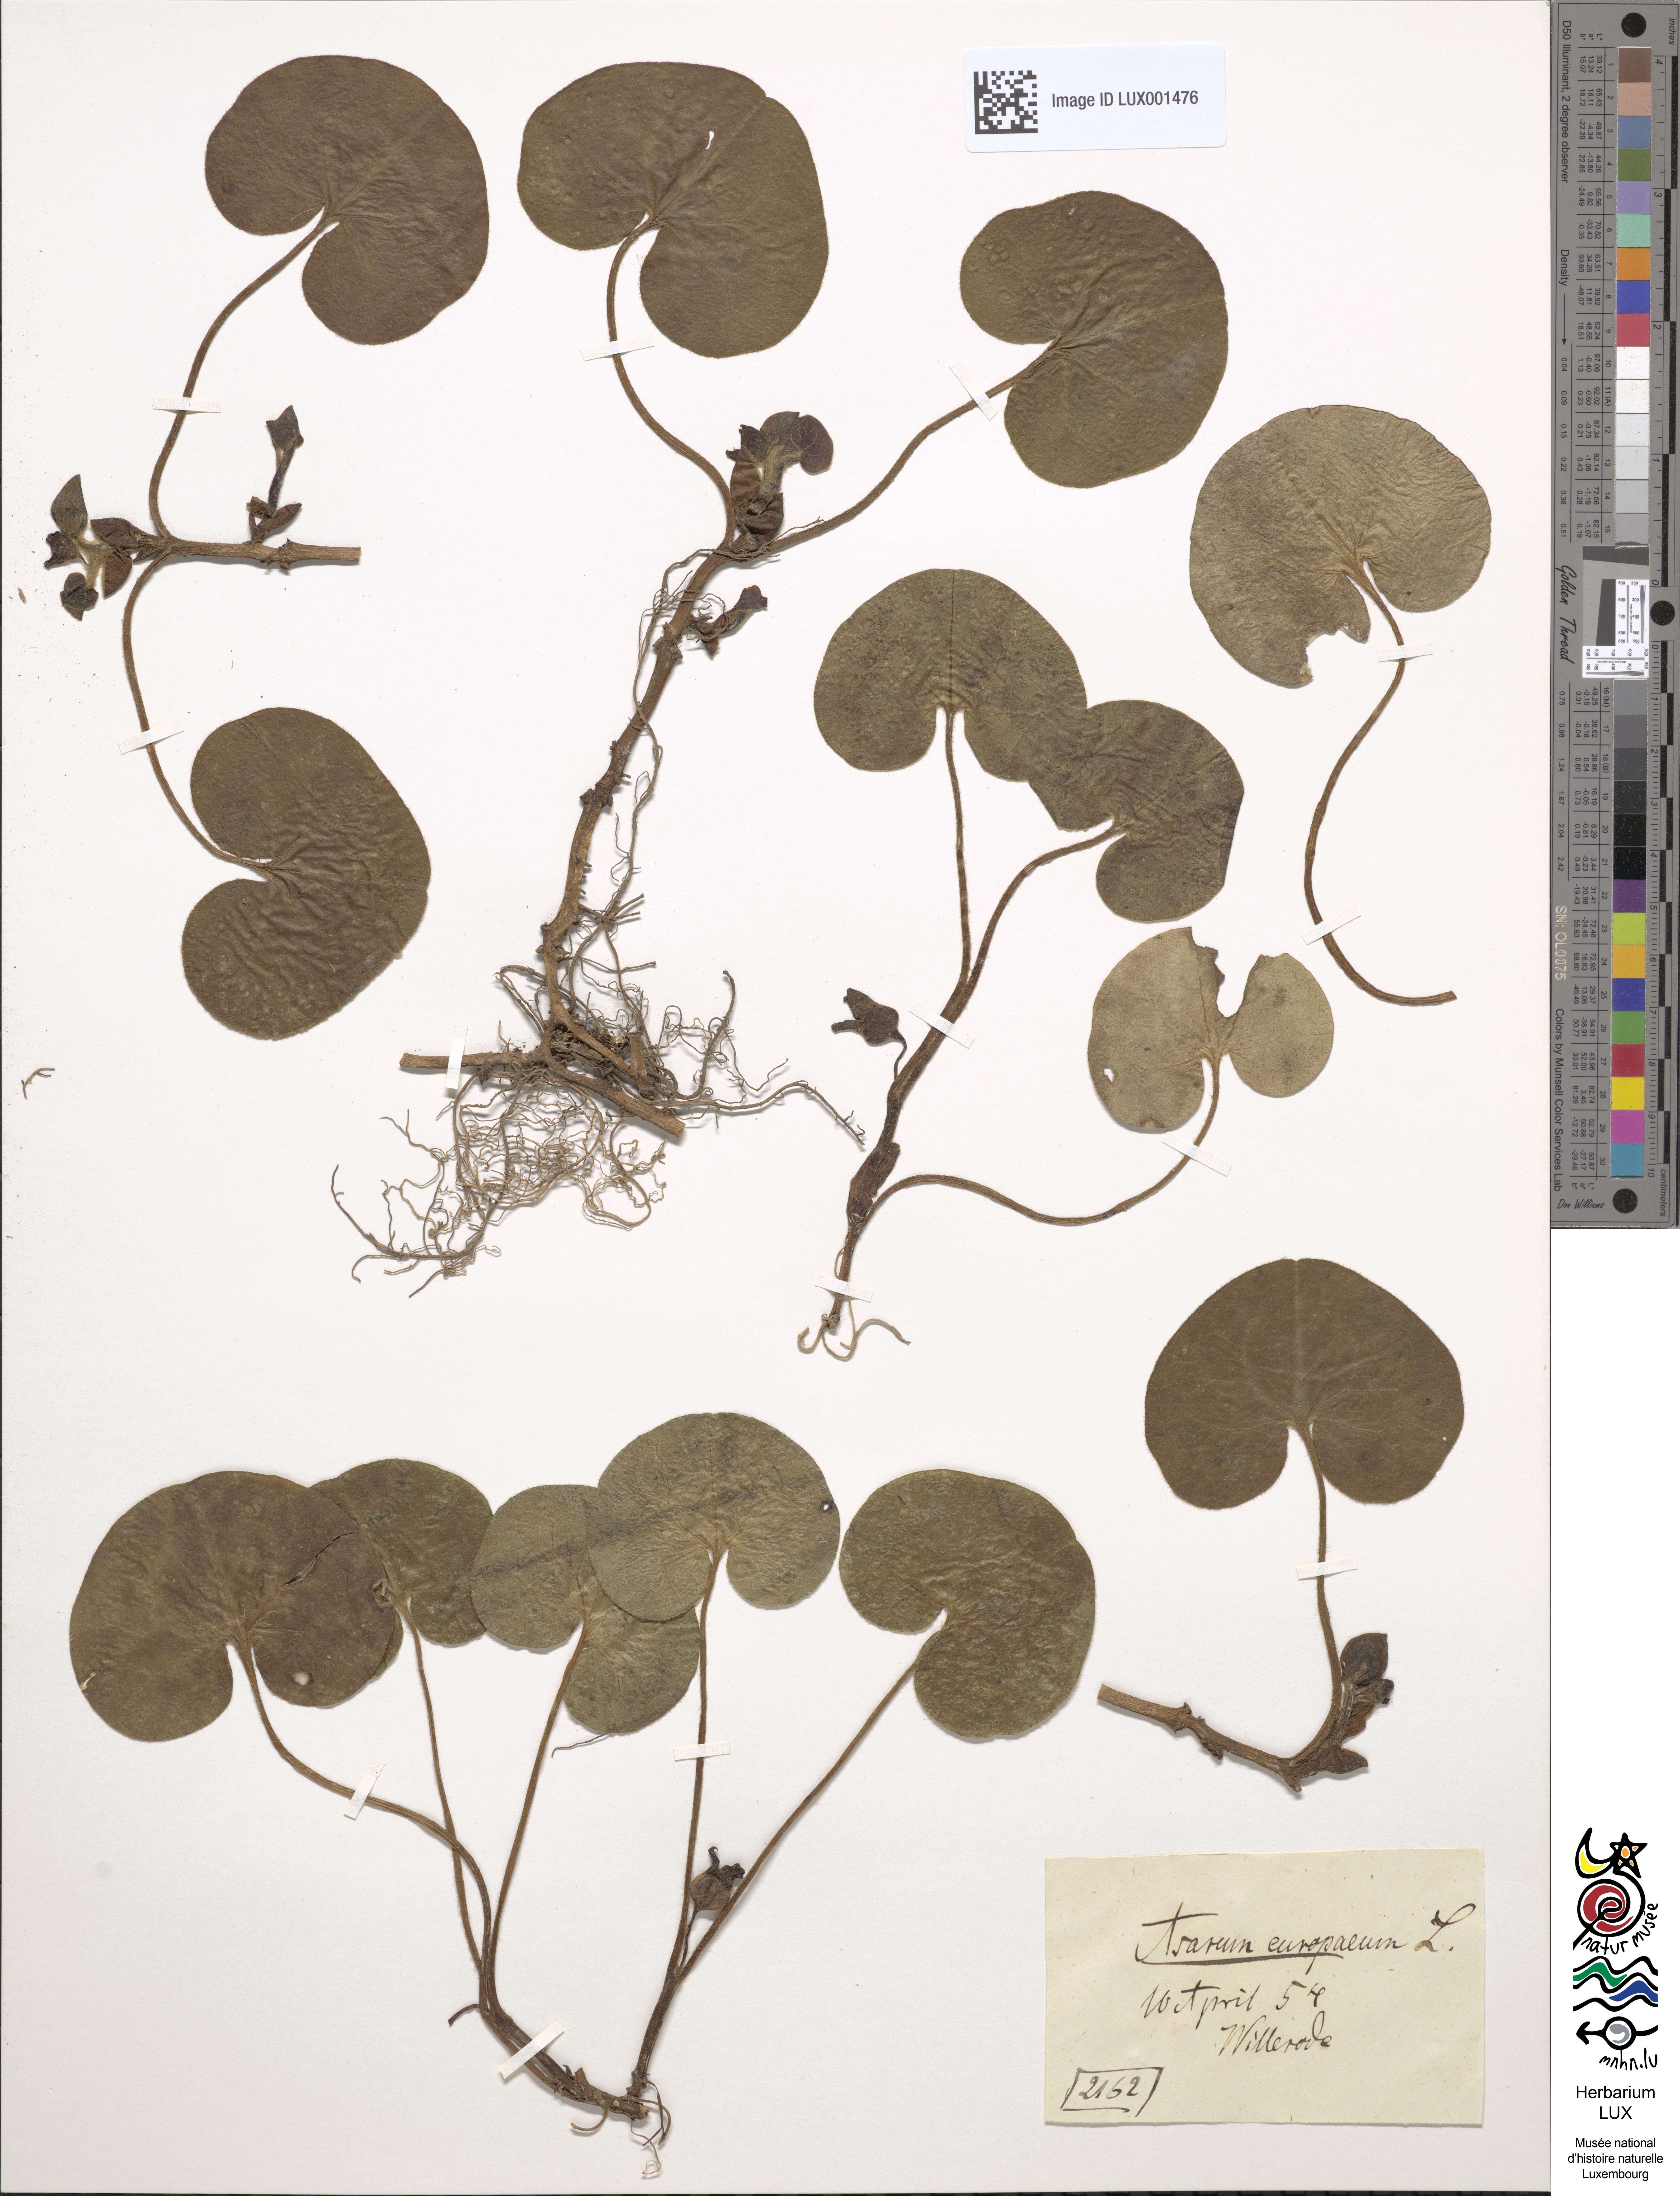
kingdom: Plantae
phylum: Tracheophyta
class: Magnoliopsida
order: Piperales
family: Aristolochiaceae
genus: Asarum
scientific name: Asarum europaeum
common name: Asarabacca
